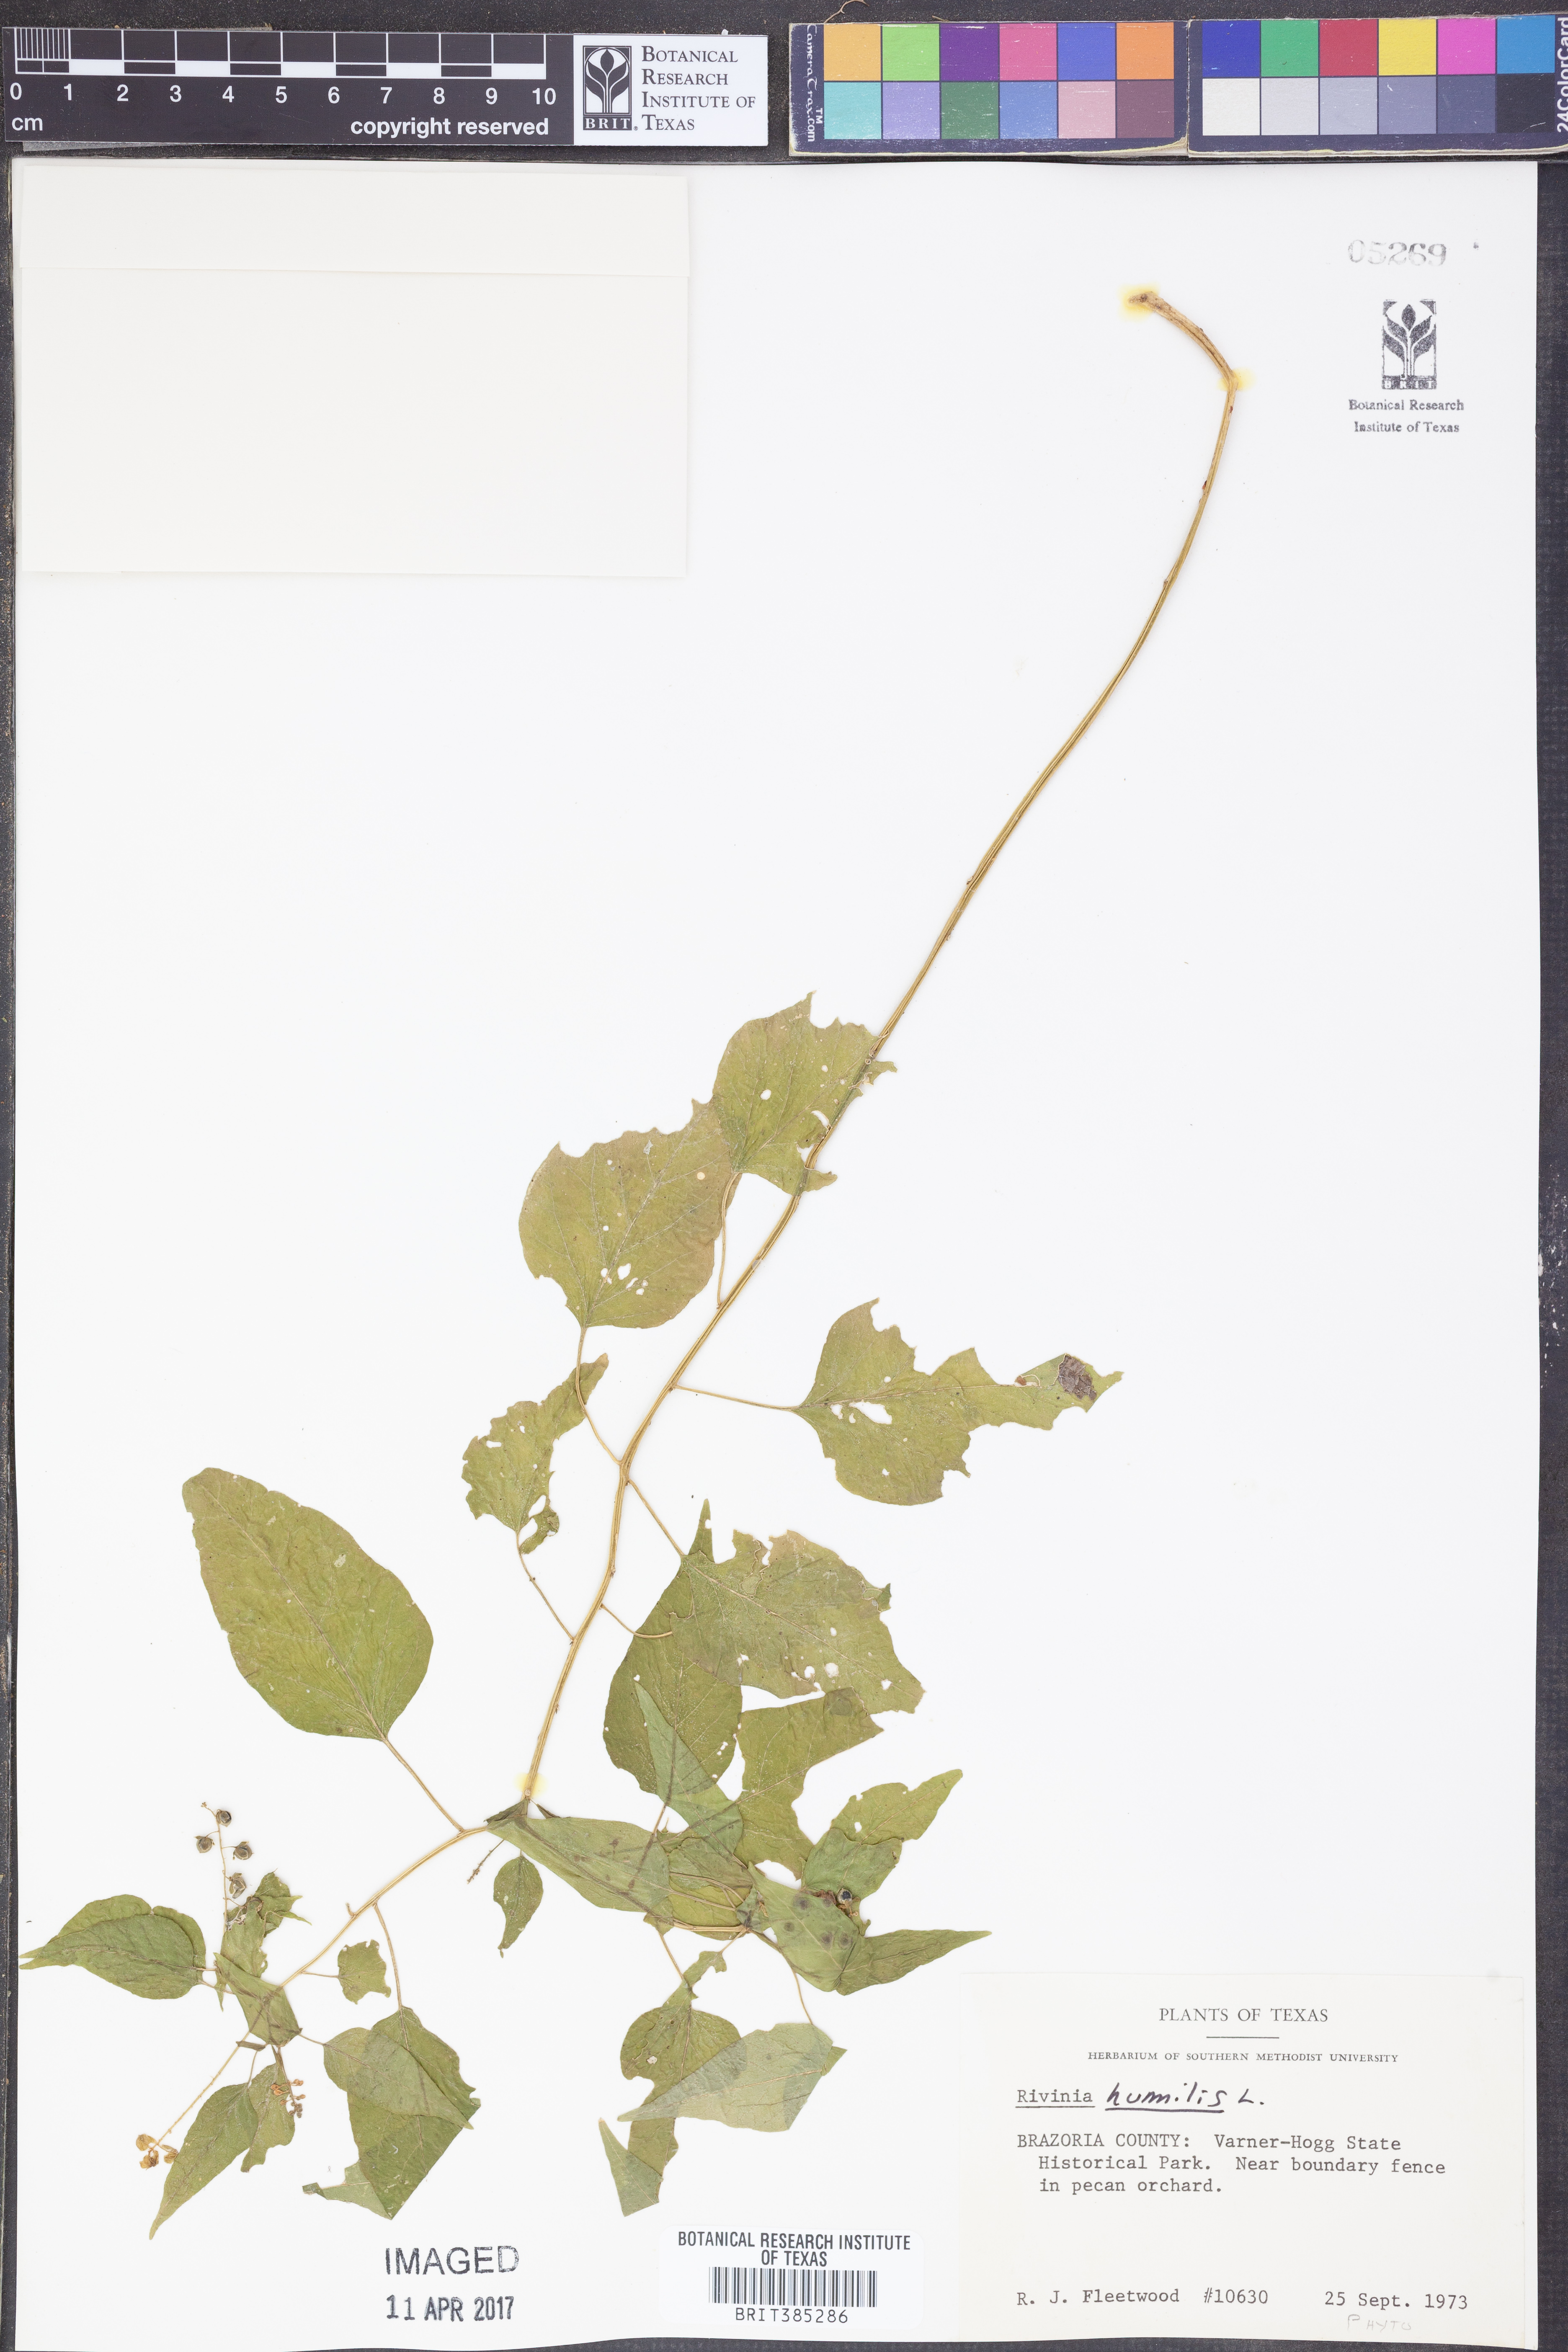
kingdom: Plantae
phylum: Tracheophyta
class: Magnoliopsida
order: Caryophyllales
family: Phytolaccaceae
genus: Rivina
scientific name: Rivina humilis
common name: Rougeplant
